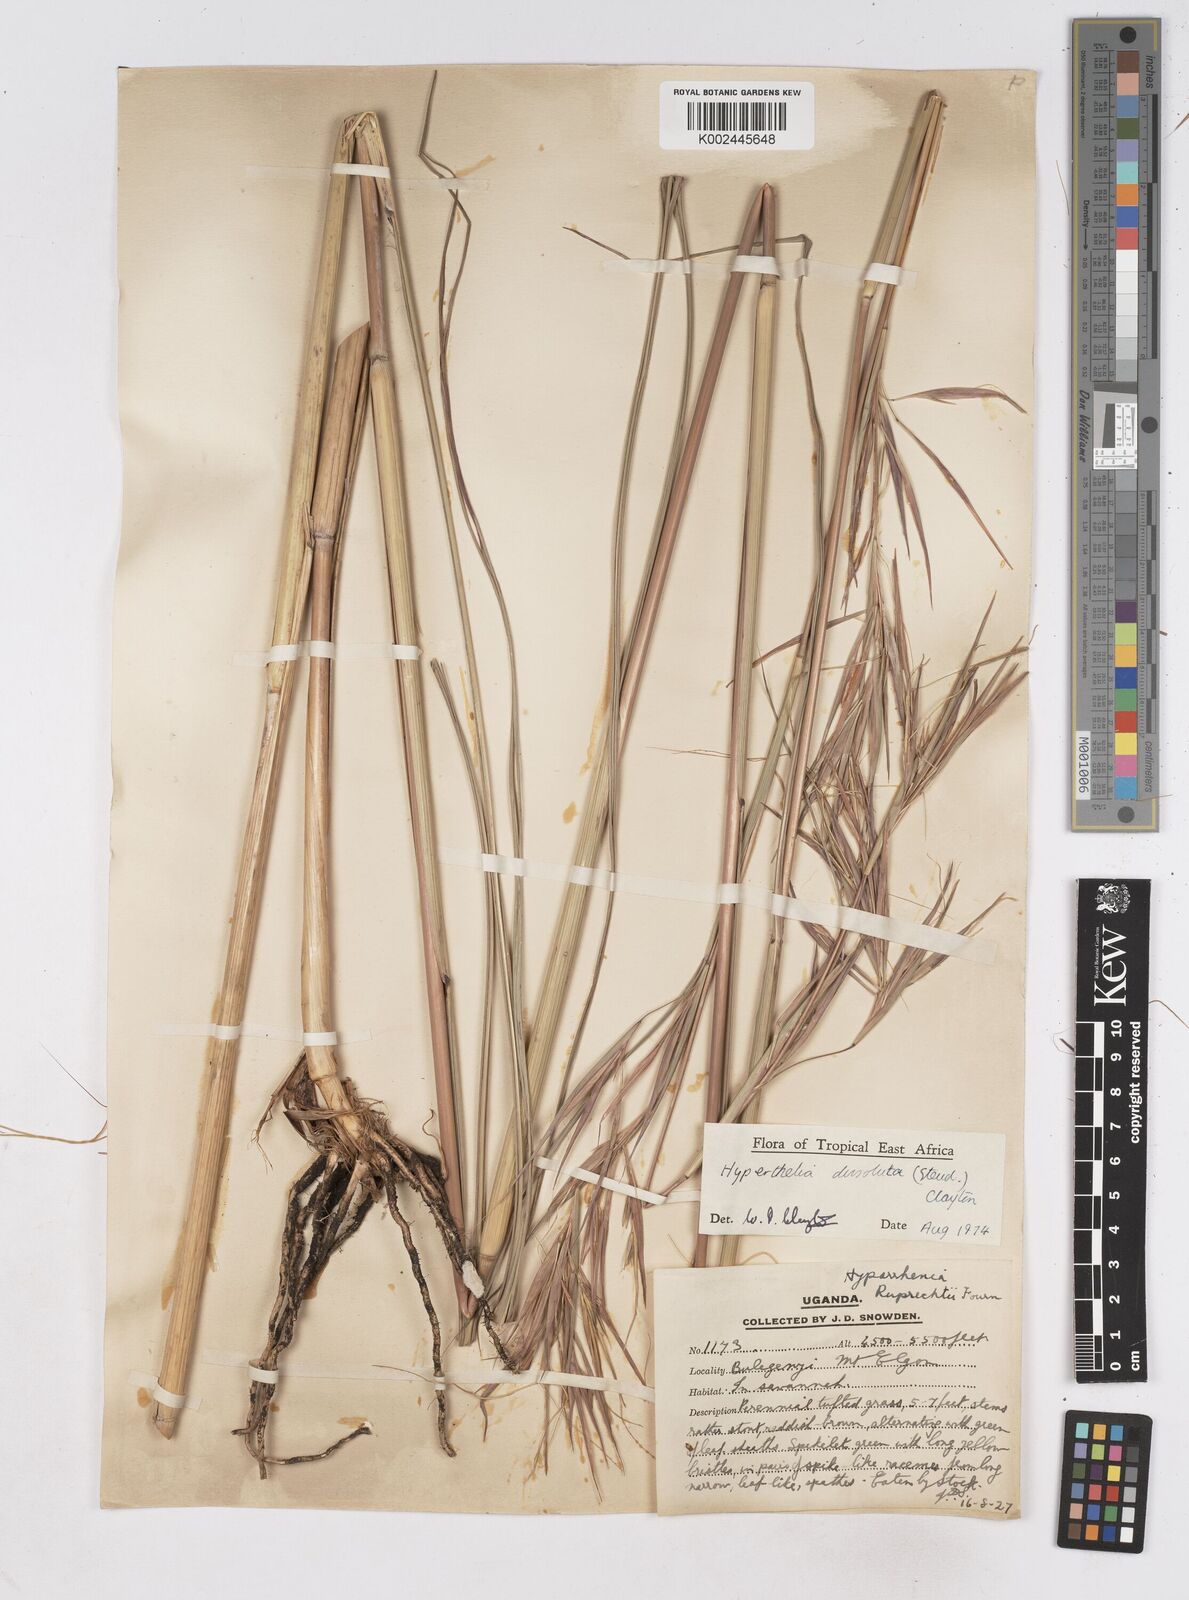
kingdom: Plantae
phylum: Tracheophyta
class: Liliopsida
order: Poales
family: Poaceae
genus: Hyperthelia
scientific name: Hyperthelia dissoluta
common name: Yellow thatching grass
